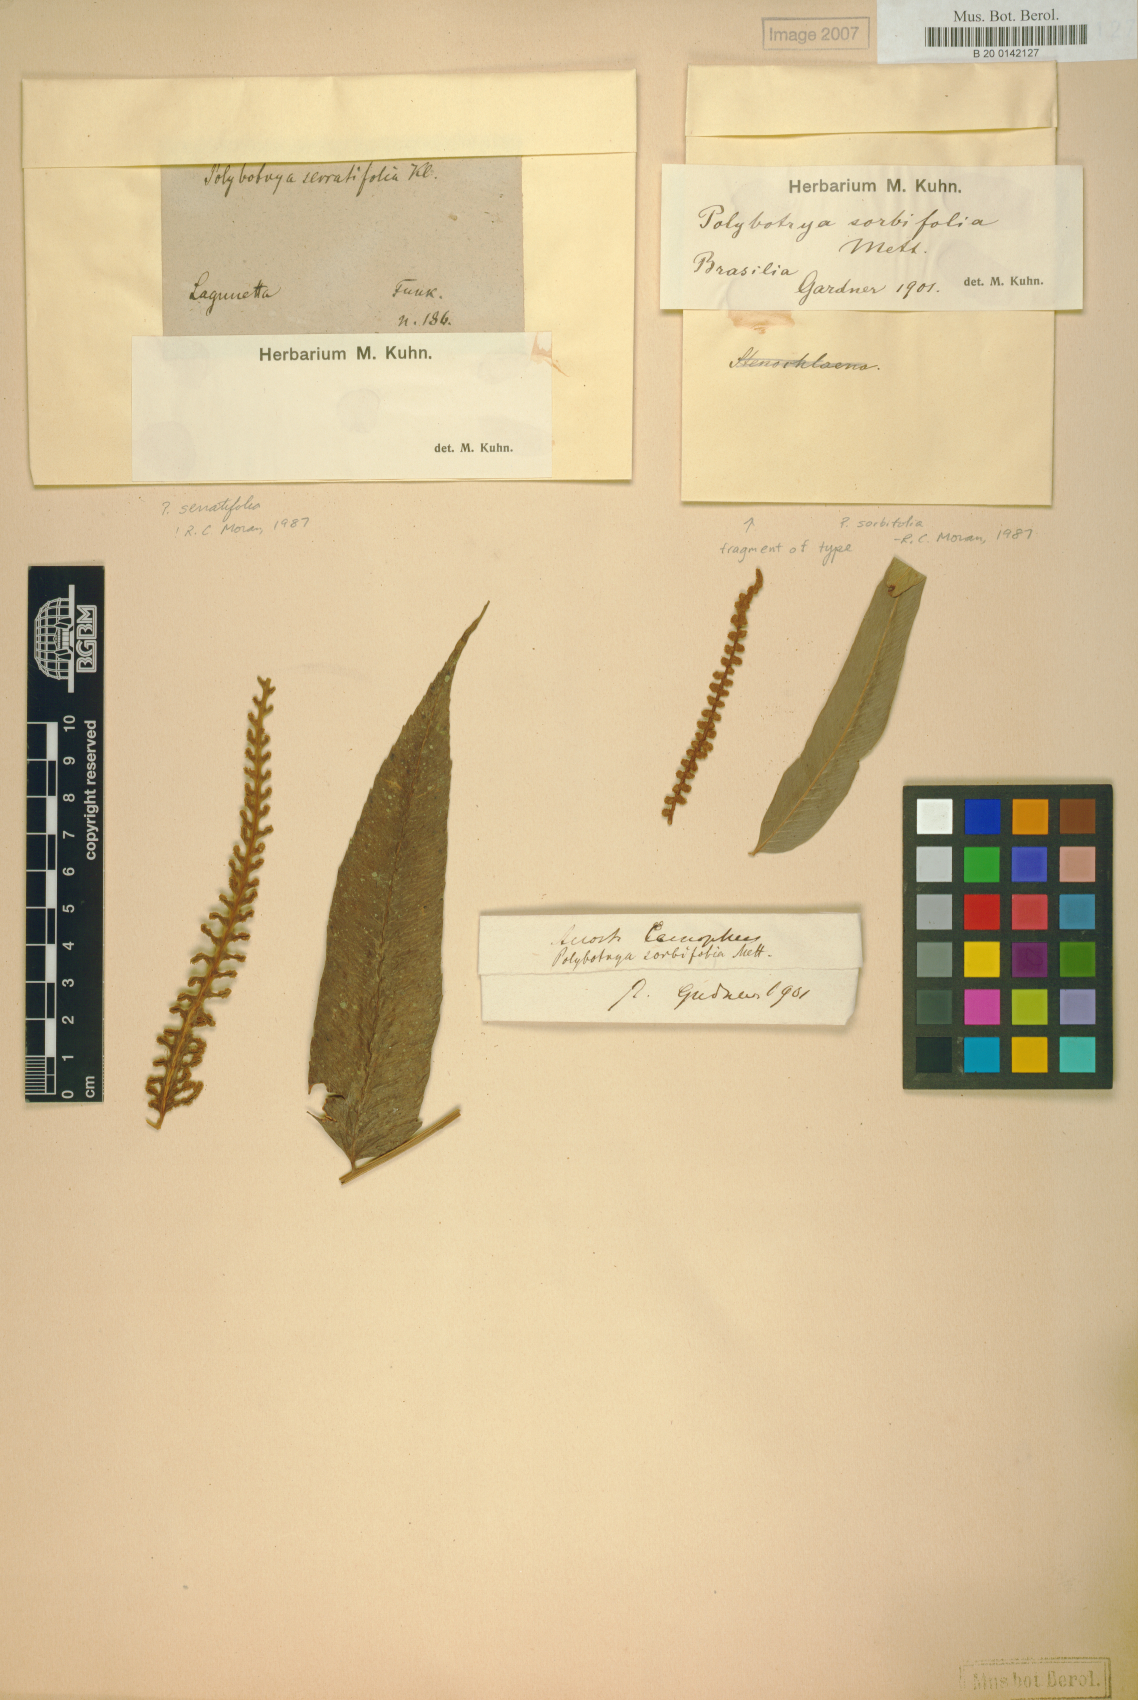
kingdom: Plantae
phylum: Tracheophyta
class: Polypodiopsida
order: Polypodiales
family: Dryopteridaceae
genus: Polybotrya
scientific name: Polybotrya sorbifolia
